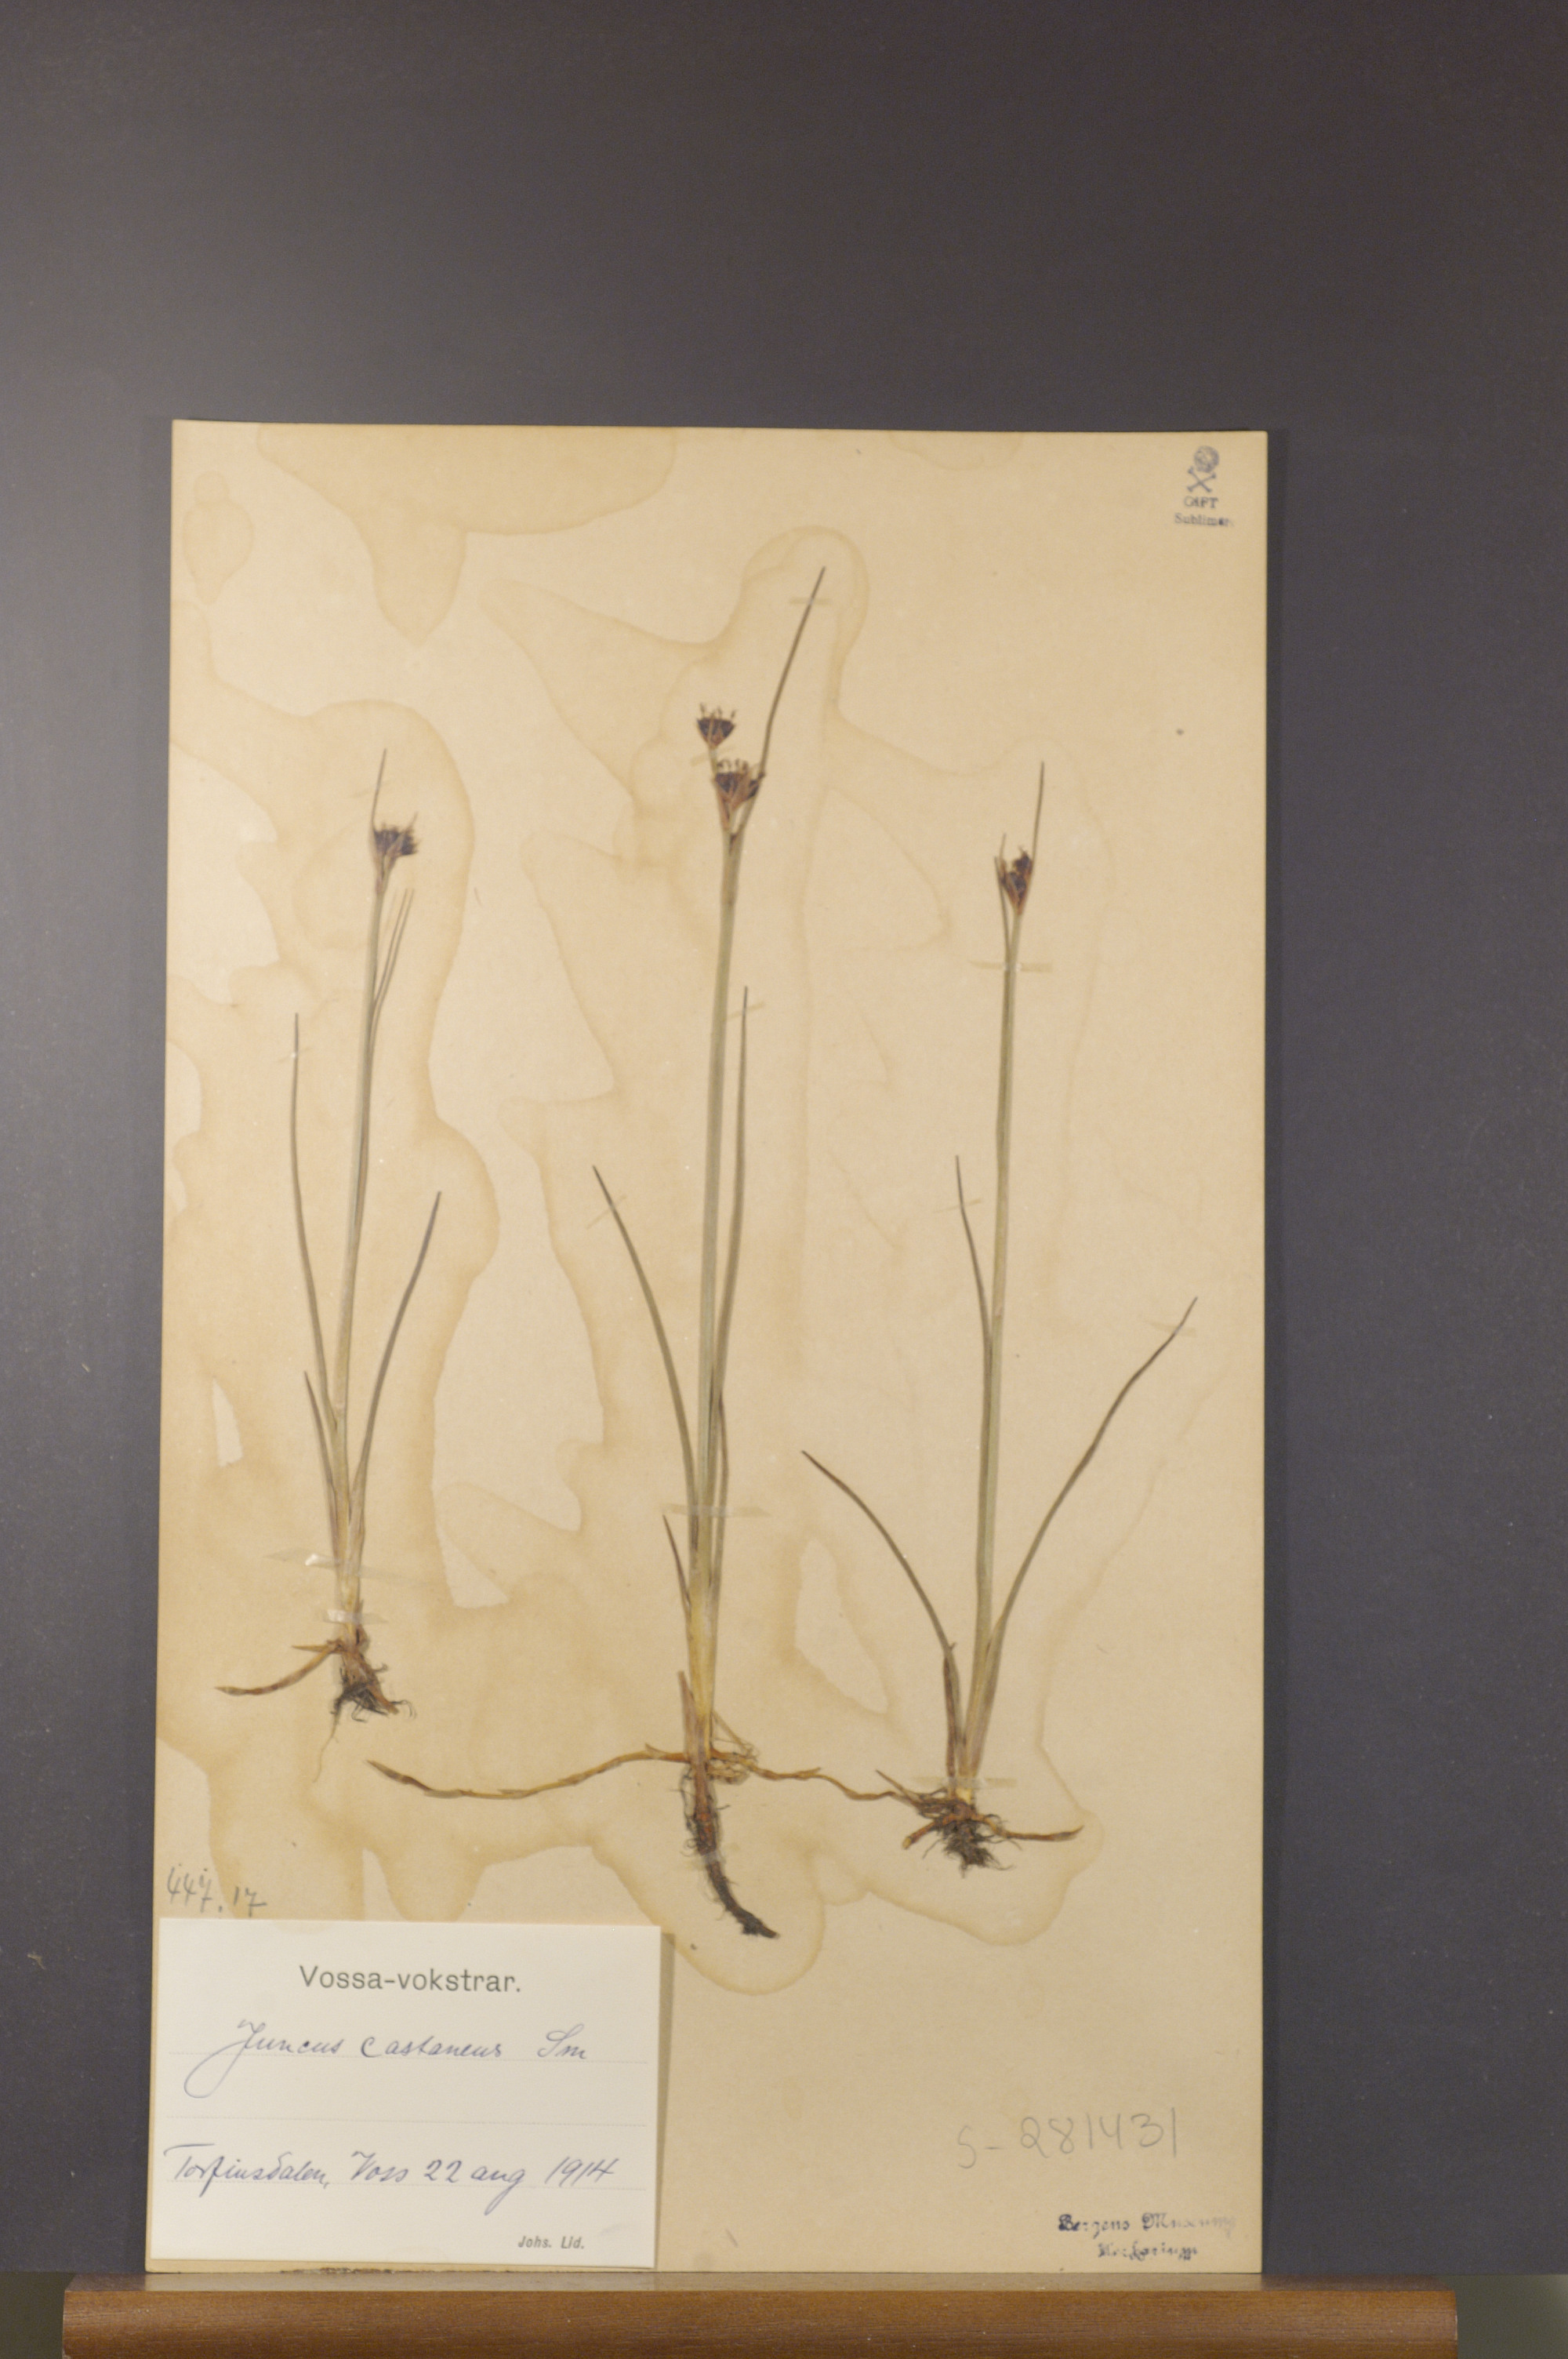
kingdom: Plantae
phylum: Tracheophyta
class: Liliopsida
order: Poales
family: Juncaceae
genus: Juncus
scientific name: Juncus castaneus
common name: Chestnut rush
